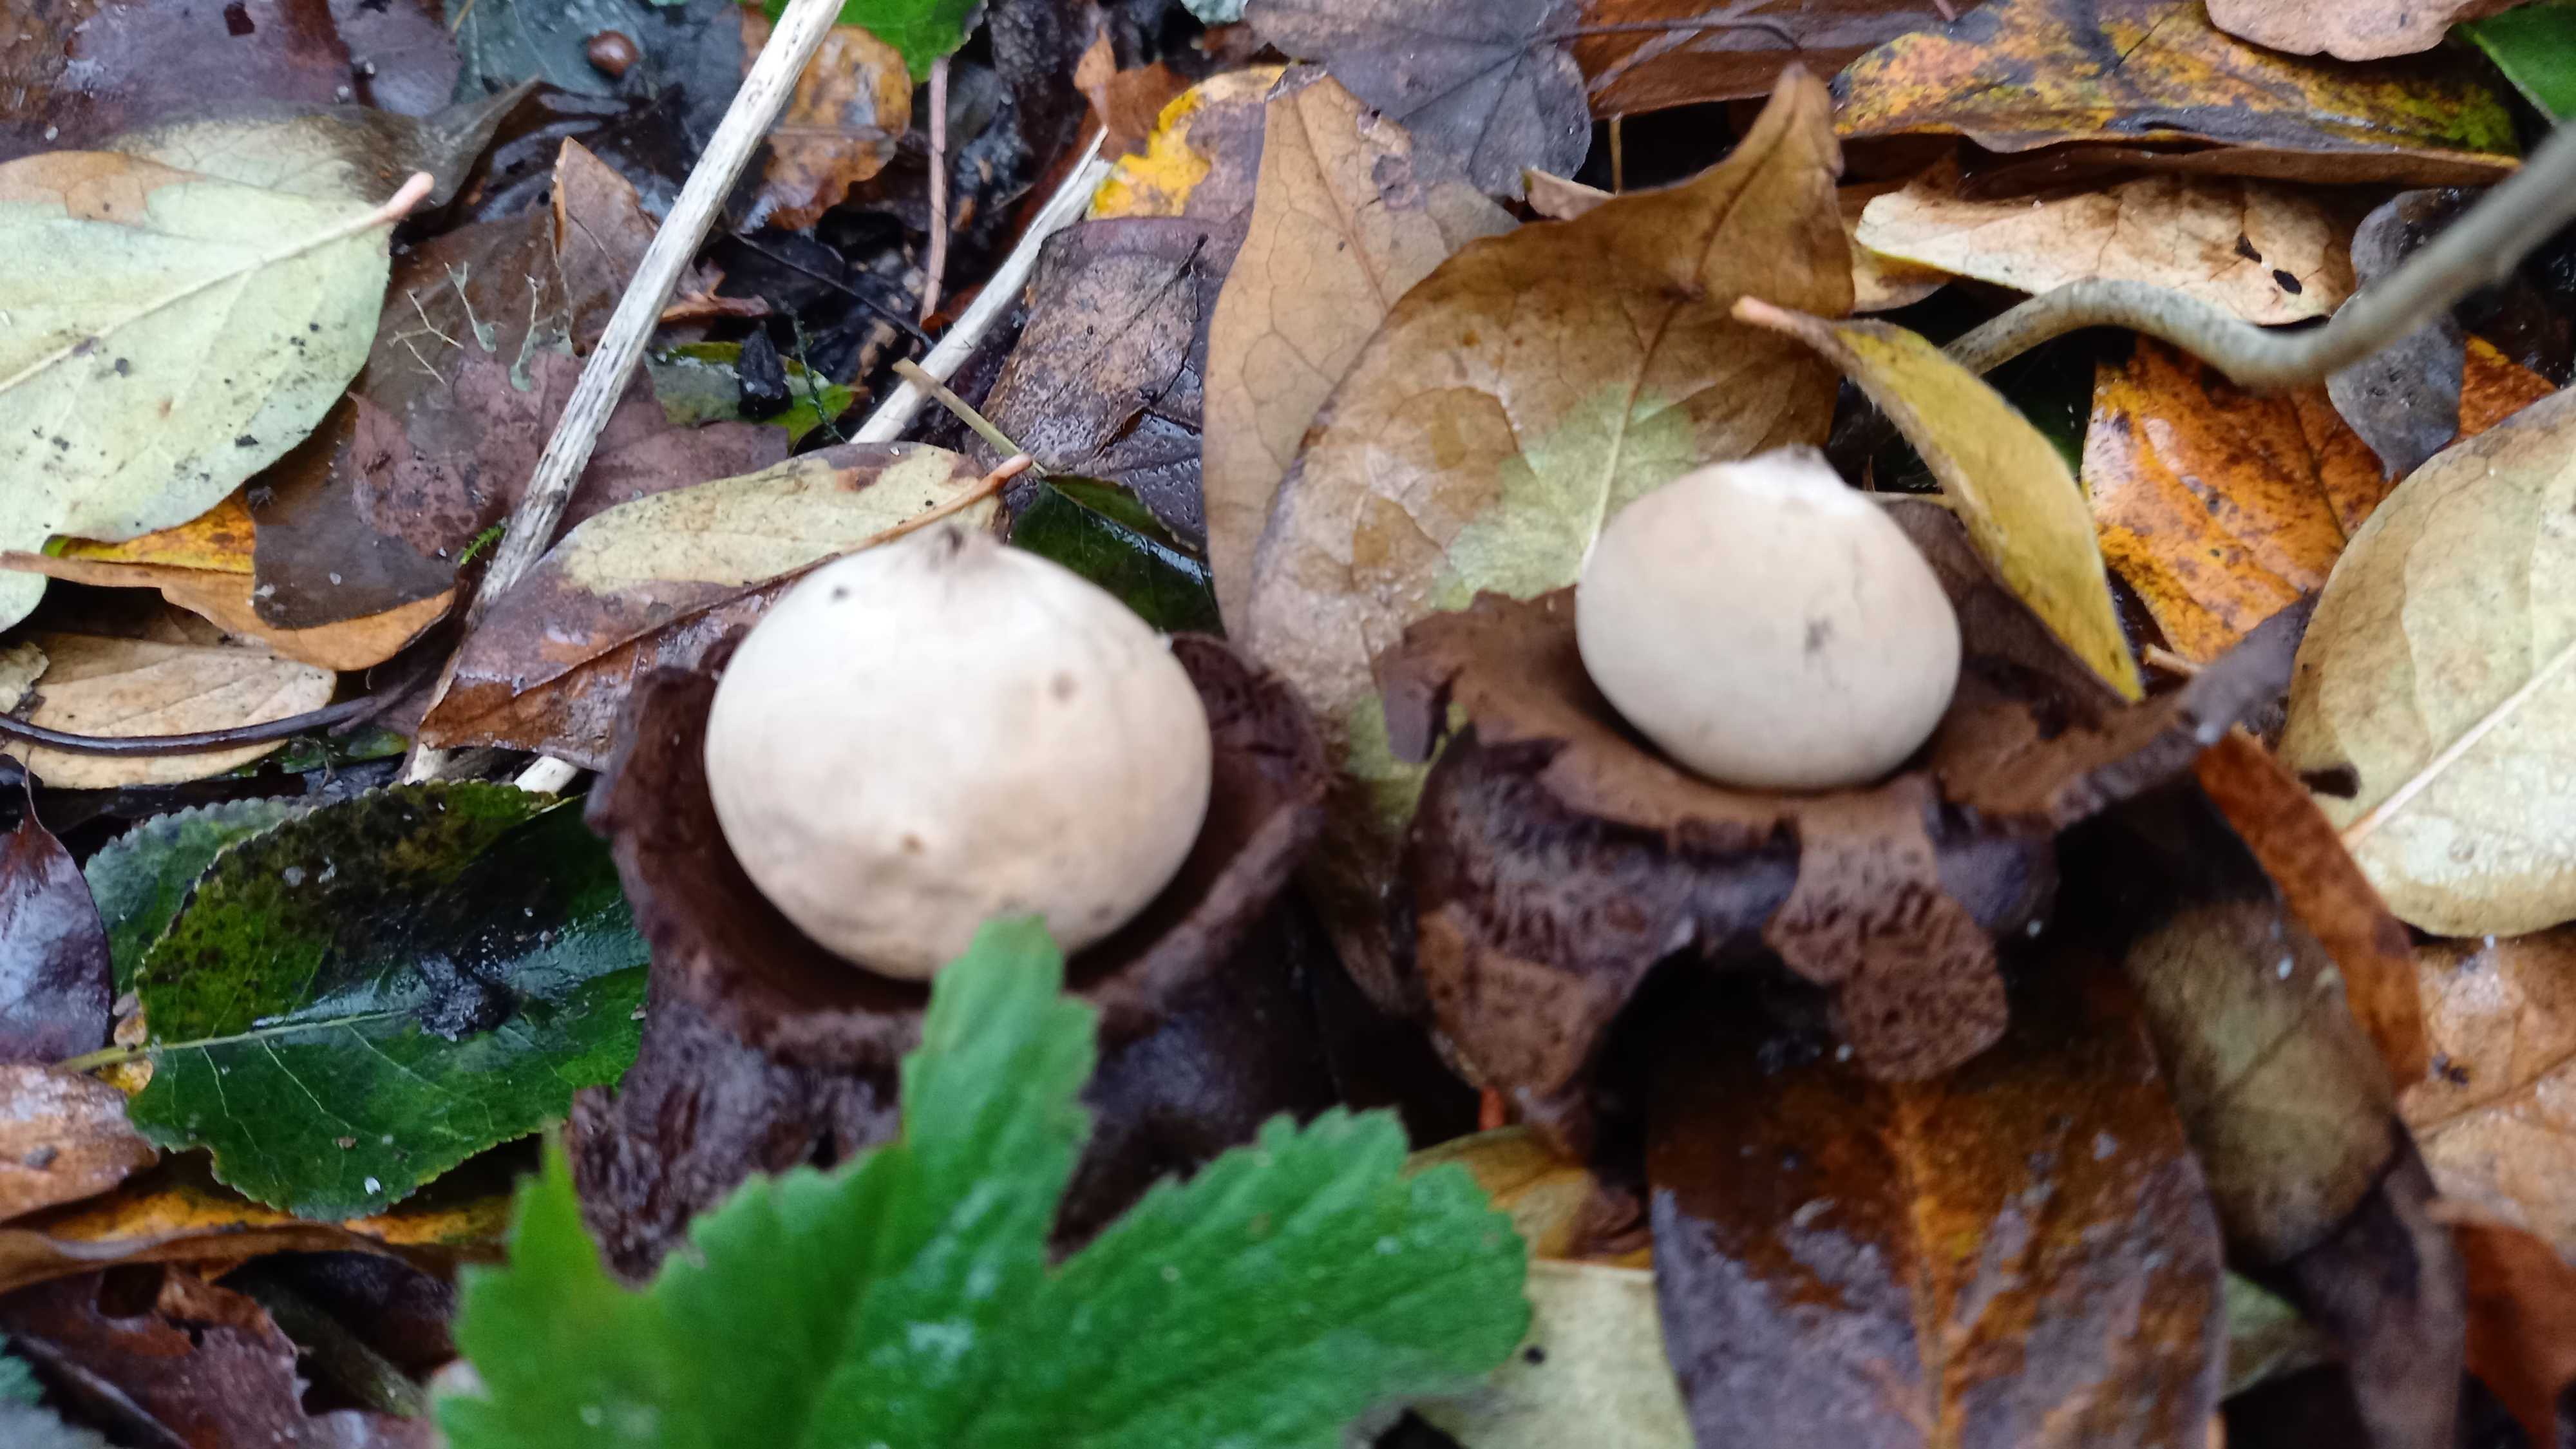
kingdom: Fungi
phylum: Basidiomycota
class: Agaricomycetes
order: Geastrales
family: Geastraceae
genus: Geastrum
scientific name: Geastrum michelianum
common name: kødet stjernebold
